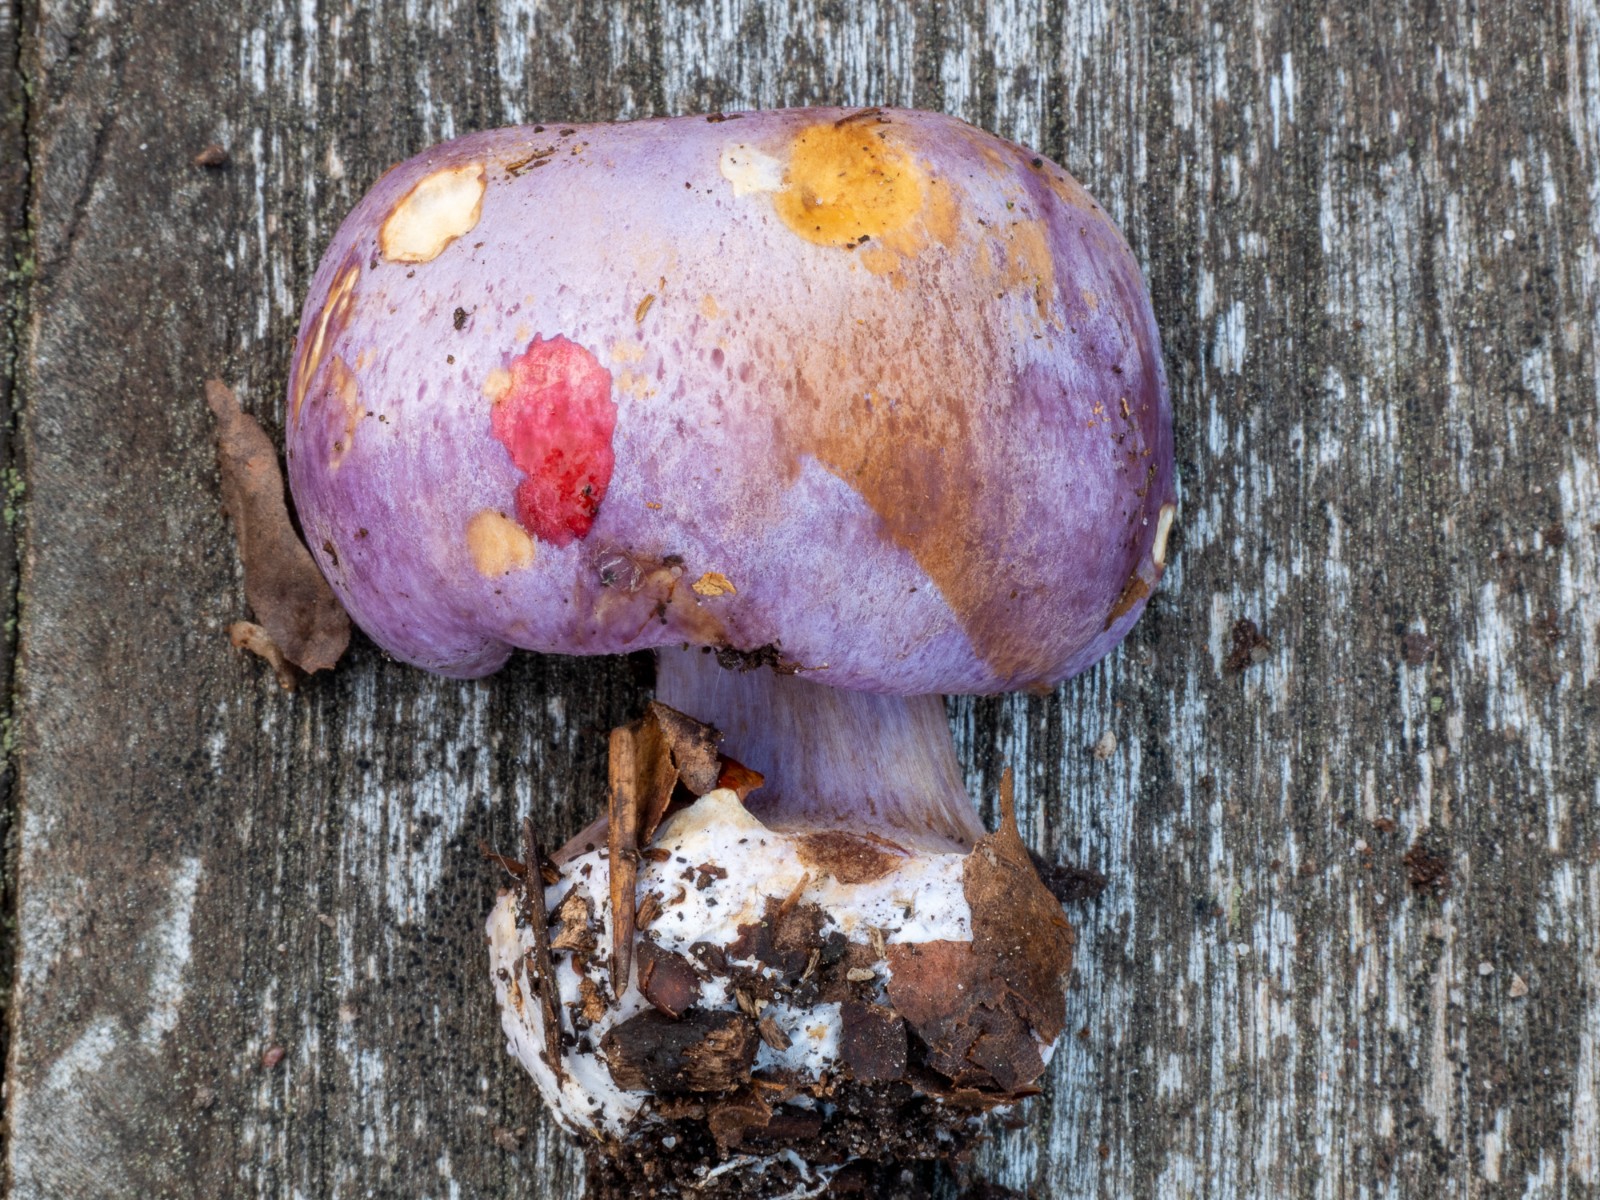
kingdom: Fungi
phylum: Basidiomycota
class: Agaricomycetes
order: Agaricales
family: Cortinariaceae
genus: Calonarius
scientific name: Calonarius sodagnitus
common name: violblå slørhat
